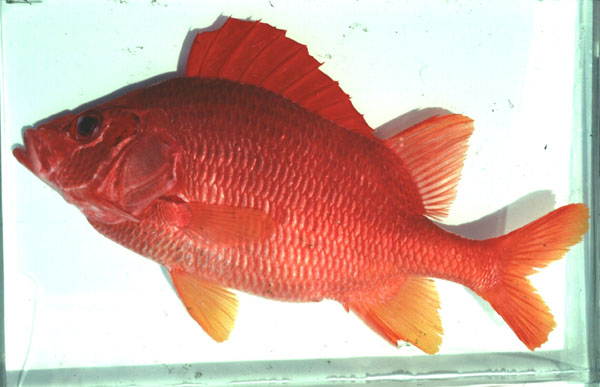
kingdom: Animalia
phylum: Chordata
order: Beryciformes
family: Holocentridae
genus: Sargocentron
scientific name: Sargocentron spiniferum
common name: Giant squirrelfish
